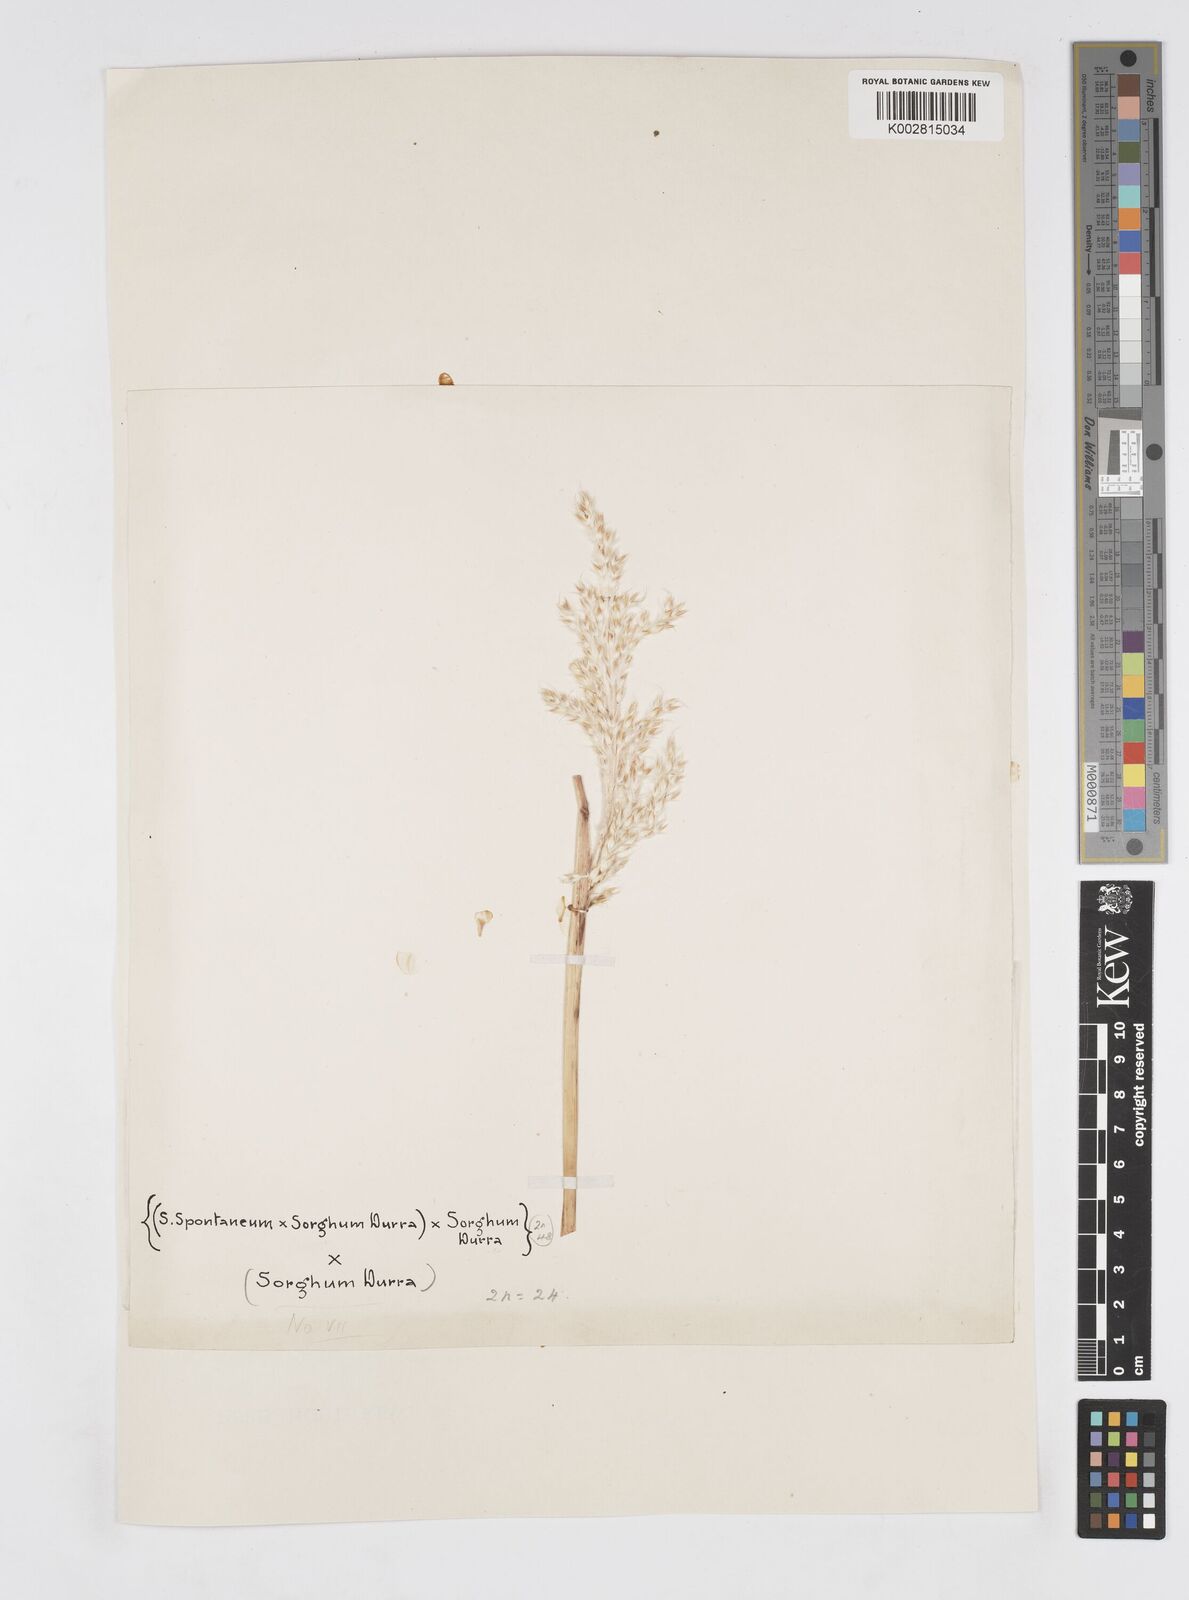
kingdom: Plantae
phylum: Tracheophyta
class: Liliopsida
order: Poales
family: Poaceae
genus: Saccharum
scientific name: Saccharum
